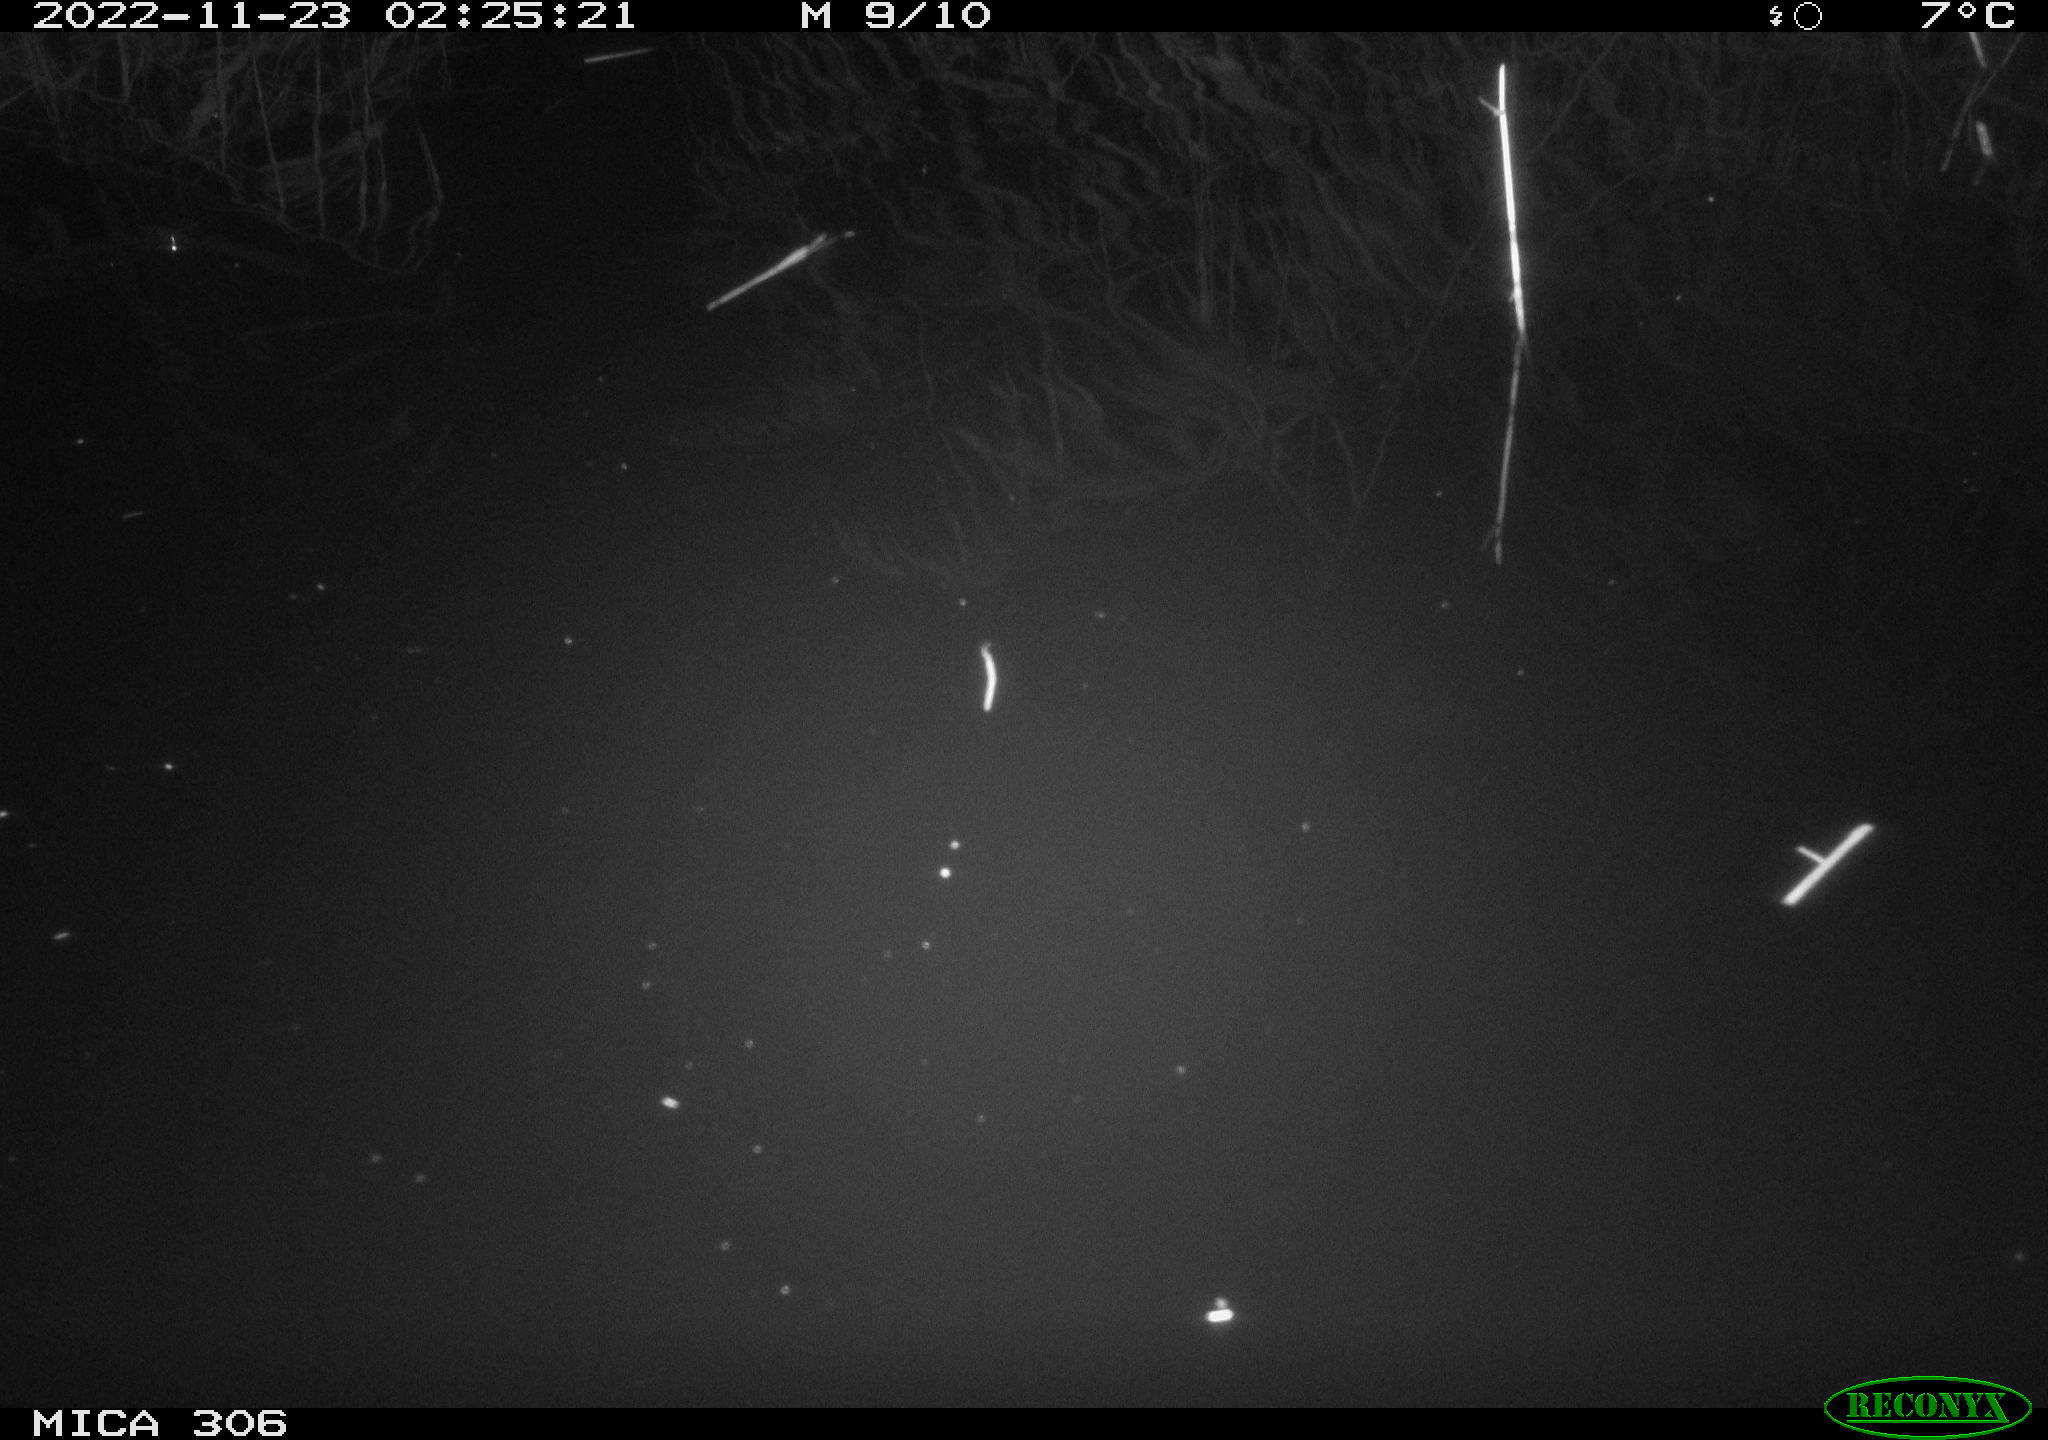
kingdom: Animalia
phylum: Chordata
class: Mammalia
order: Rodentia
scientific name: Rodentia
